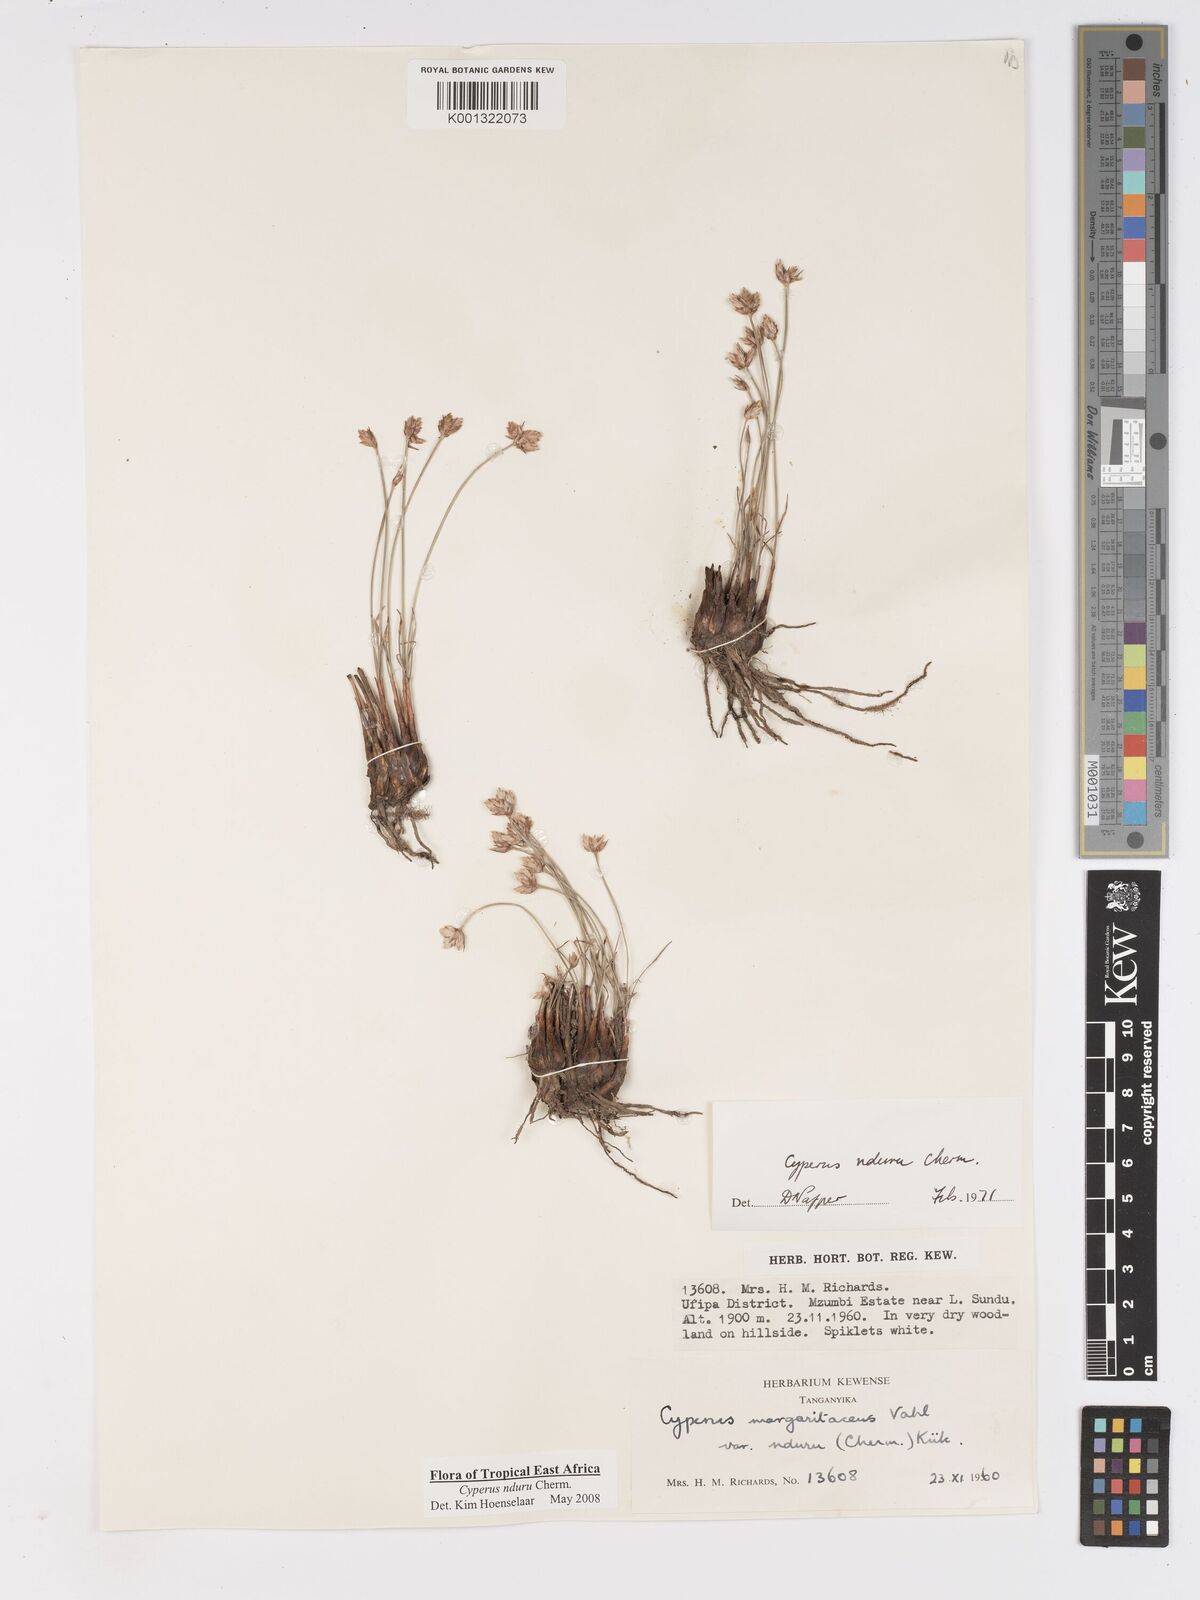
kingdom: Plantae
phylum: Tracheophyta
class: Liliopsida
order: Poales
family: Cyperaceae
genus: Cyperus
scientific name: Cyperus nduru
